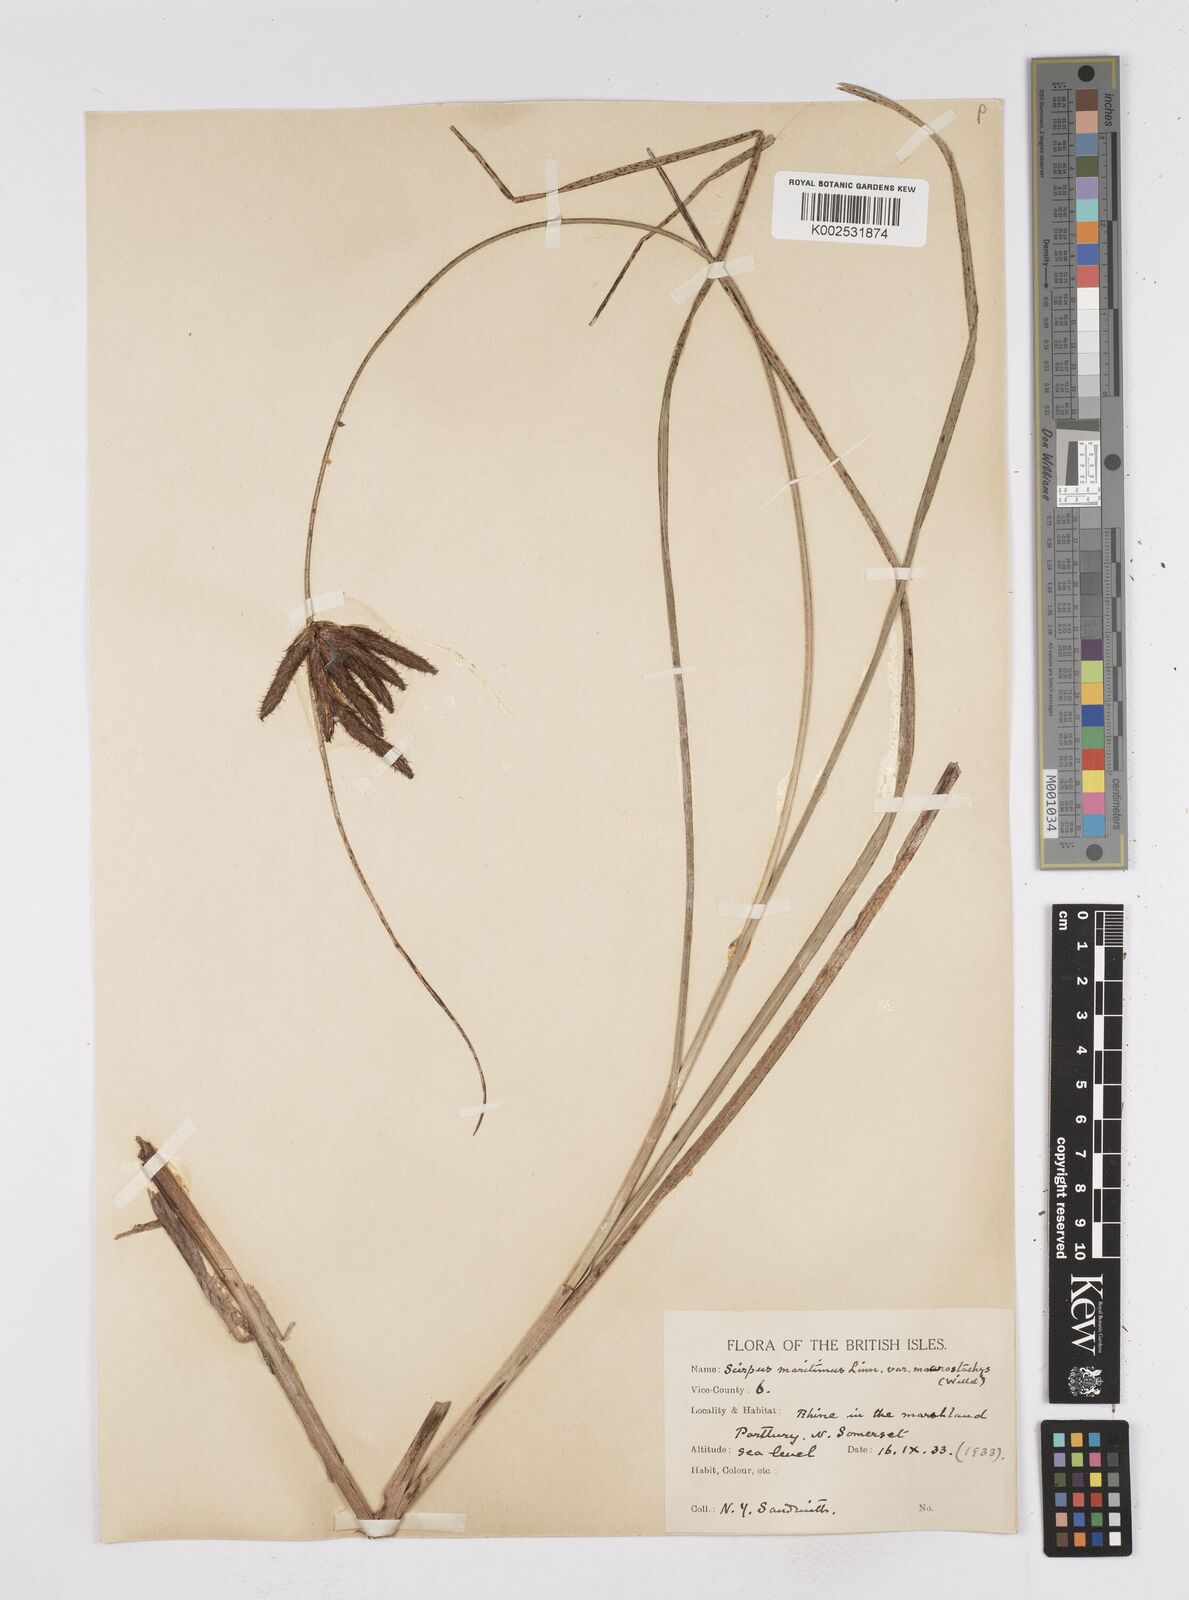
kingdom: Plantae
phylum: Tracheophyta
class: Liliopsida
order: Poales
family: Cyperaceae
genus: Bolboschoenus
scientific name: Bolboschoenus maritimus
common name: Sea club-rush
